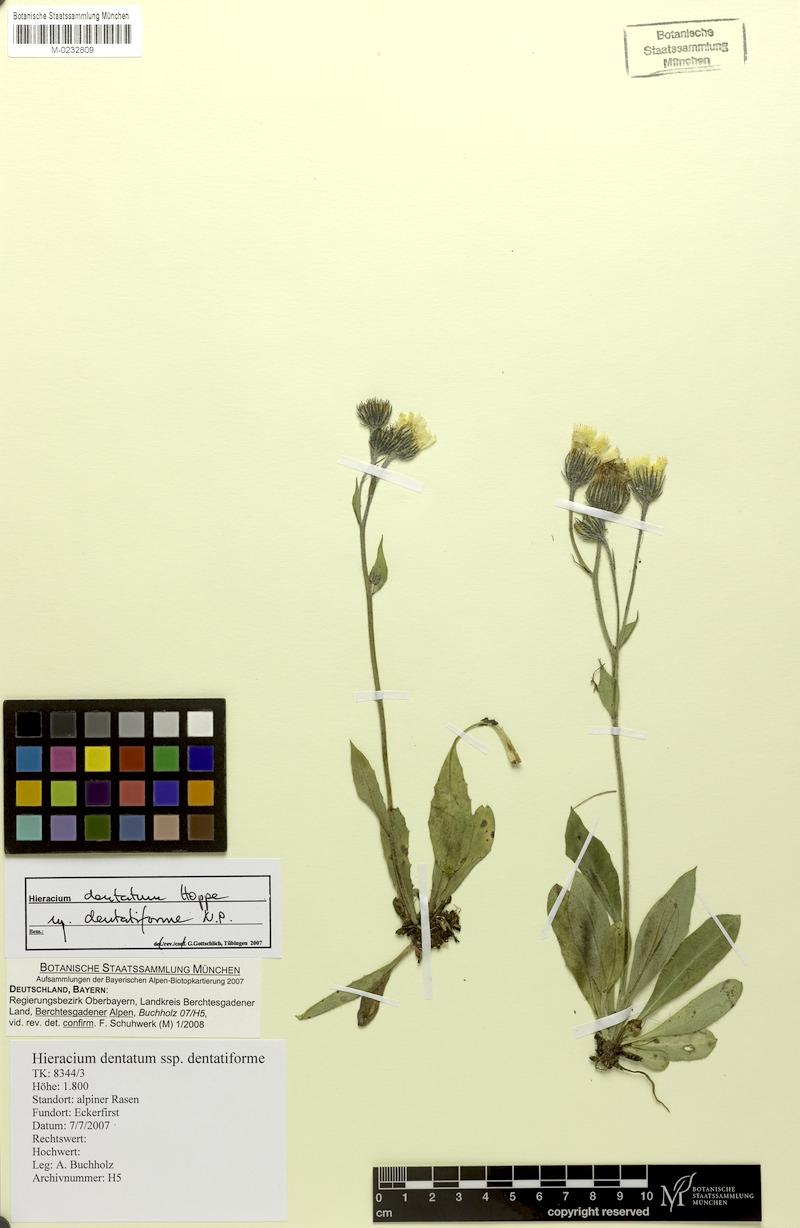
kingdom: Plantae
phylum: Tracheophyta
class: Magnoliopsida
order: Asterales
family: Asteraceae
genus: Hieracium
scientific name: Hieracium dentatum
